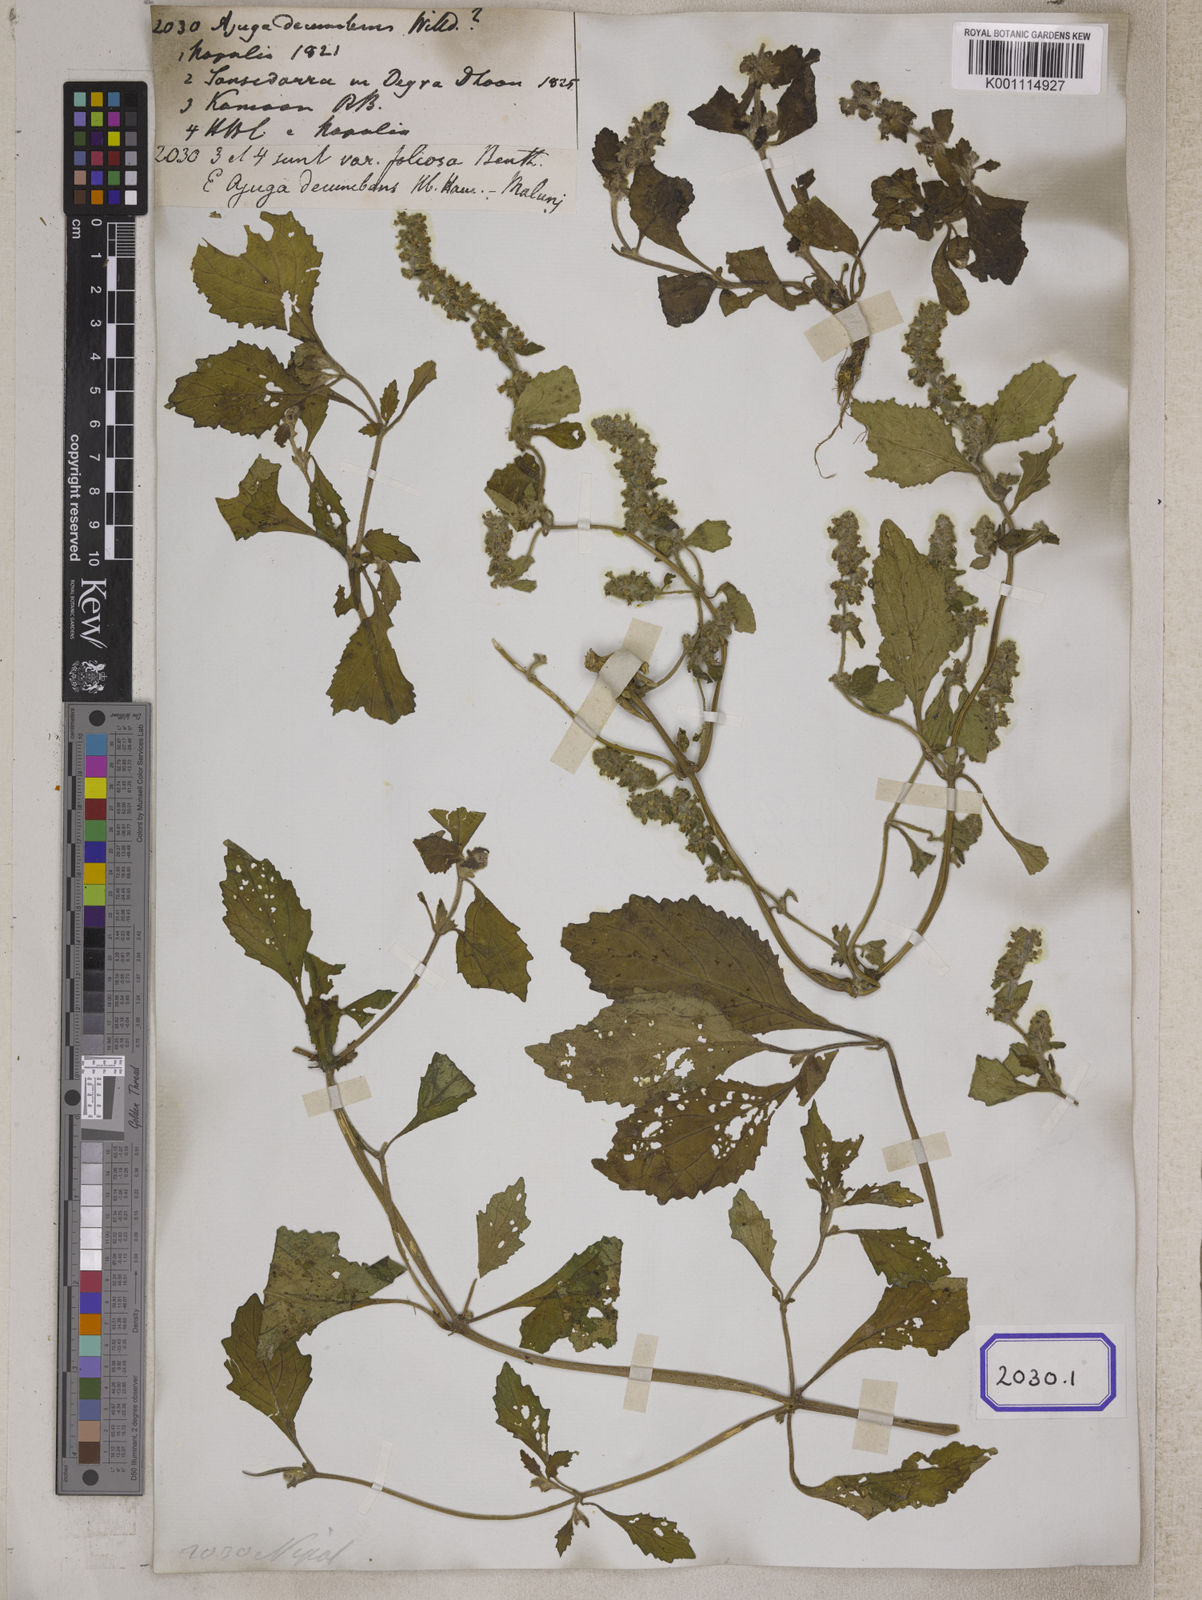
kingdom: Plantae
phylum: Tracheophyta
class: Magnoliopsida
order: Lamiales
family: Lamiaceae
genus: Ajuga
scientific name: Ajuga
